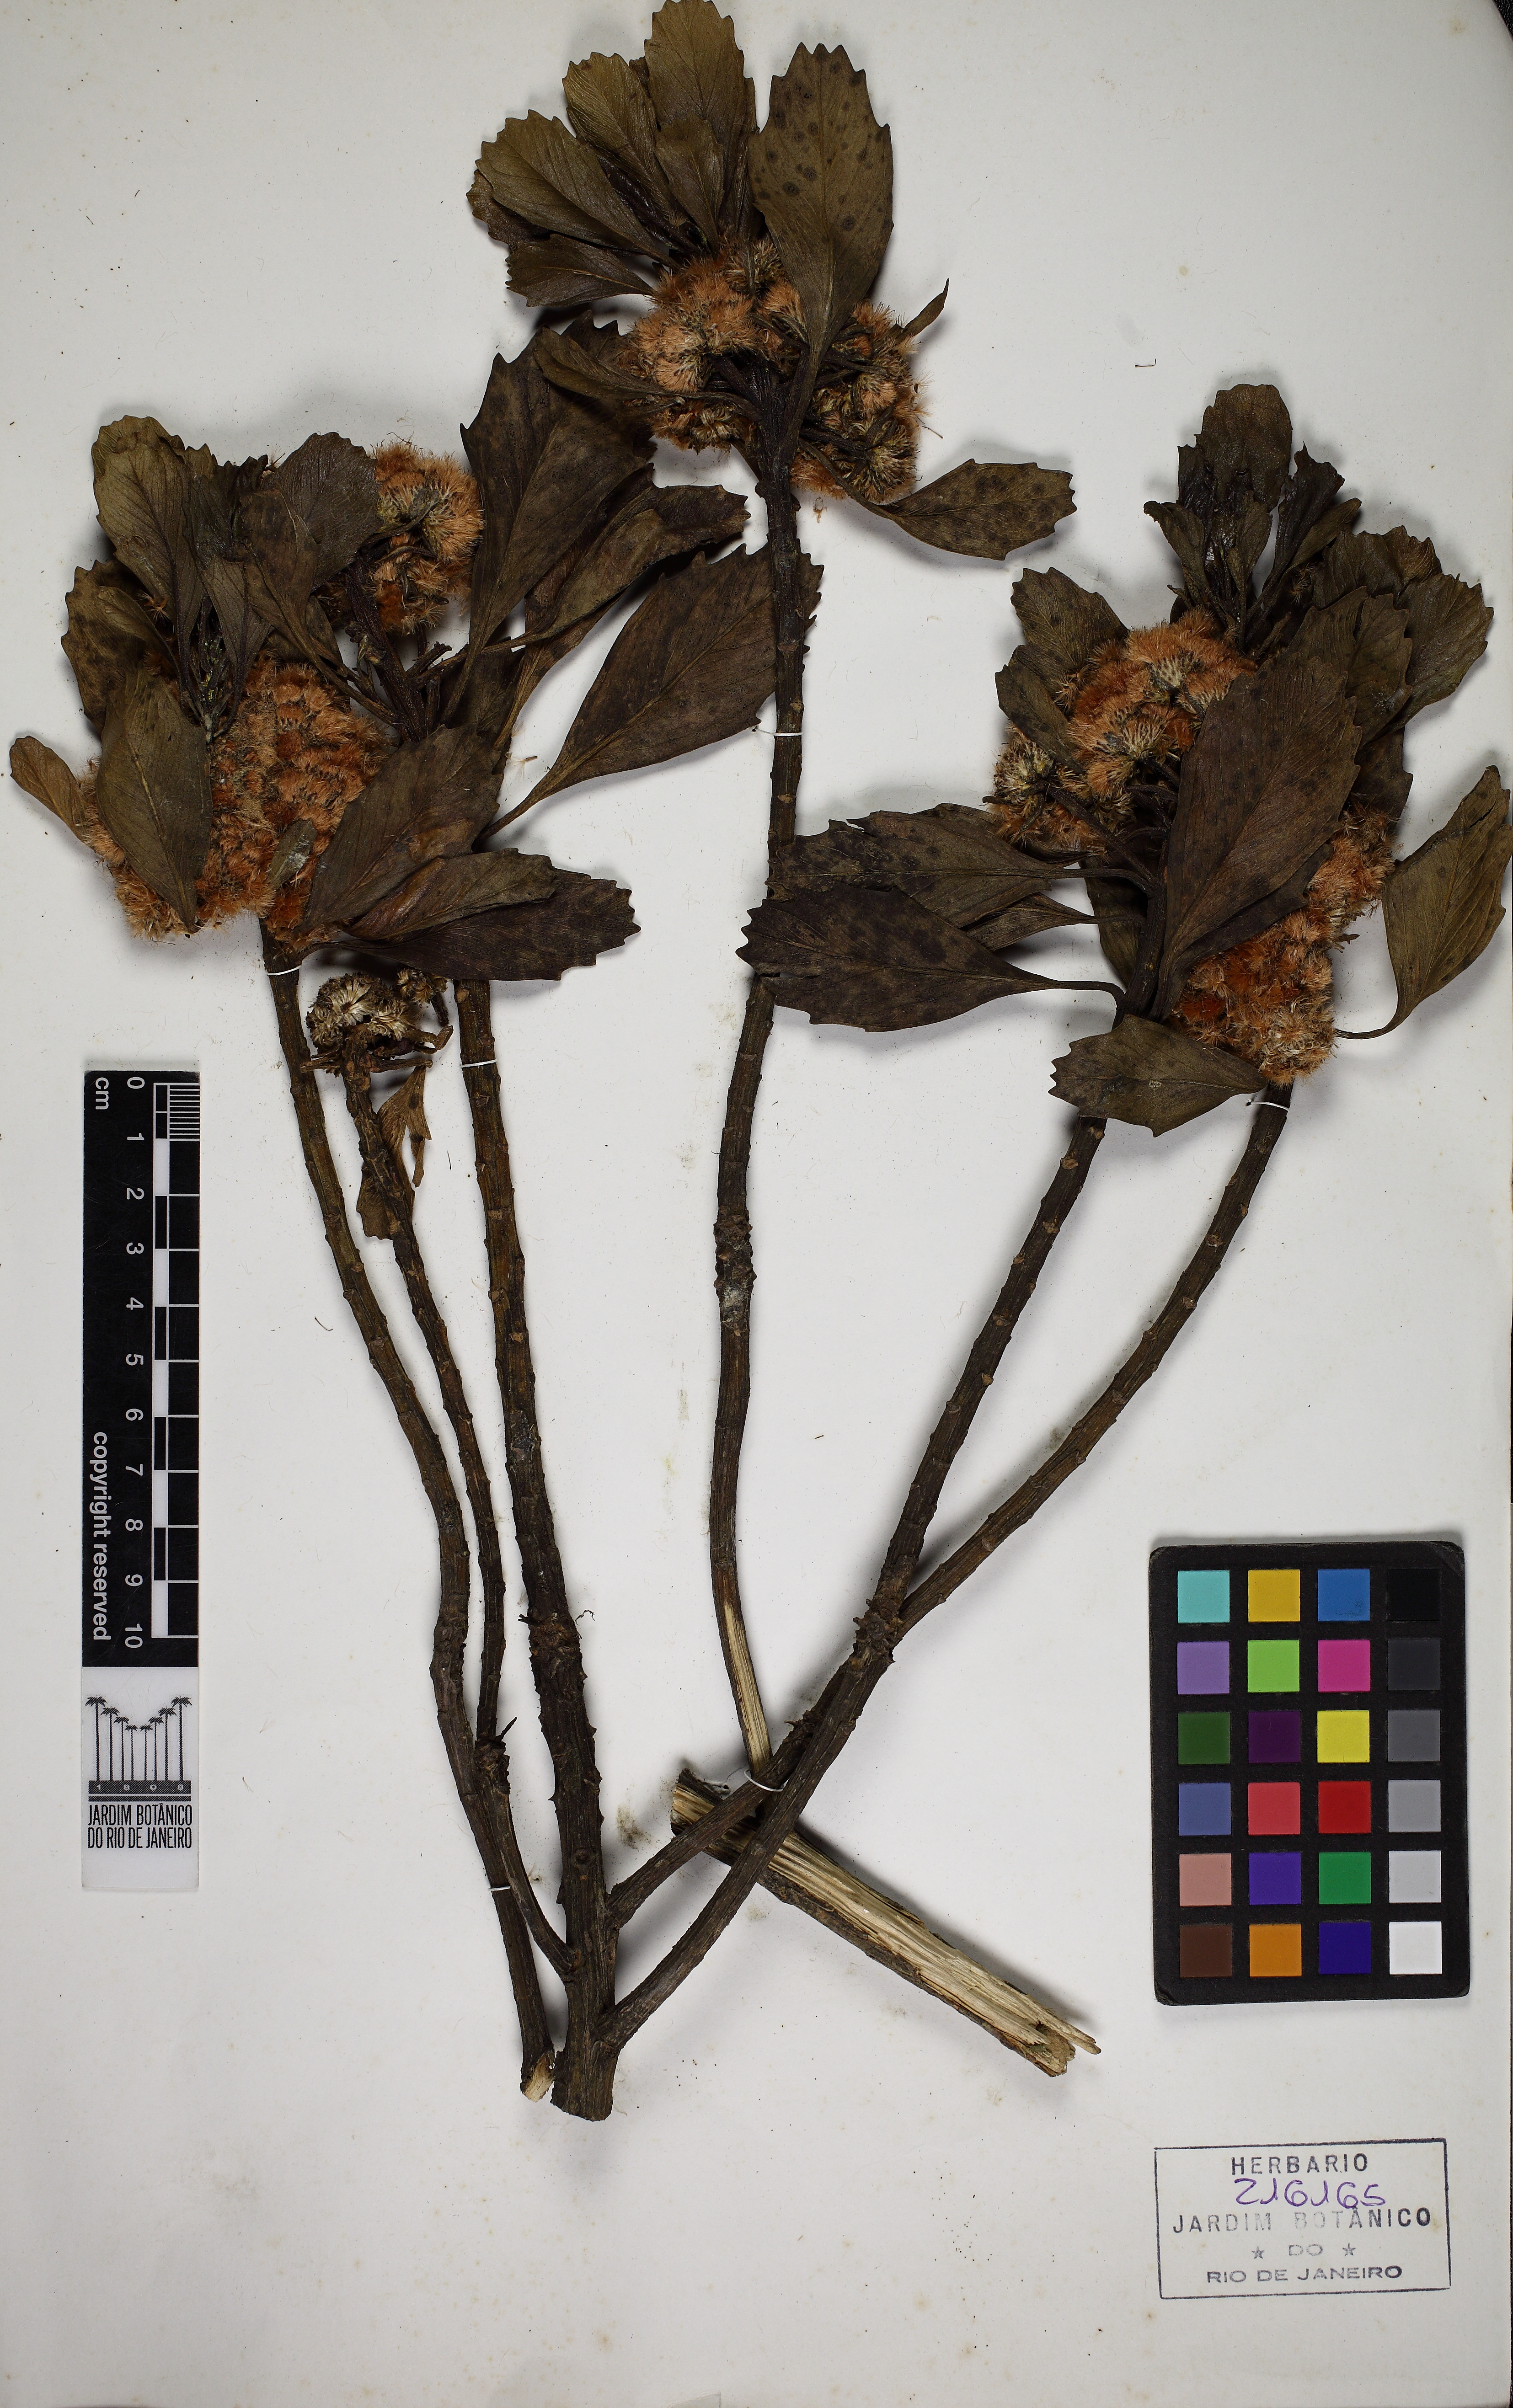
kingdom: Plantae
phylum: Tracheophyta
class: Magnoliopsida
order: Asterales
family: Asteraceae
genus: Baccharis
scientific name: Baccharis platypoda
